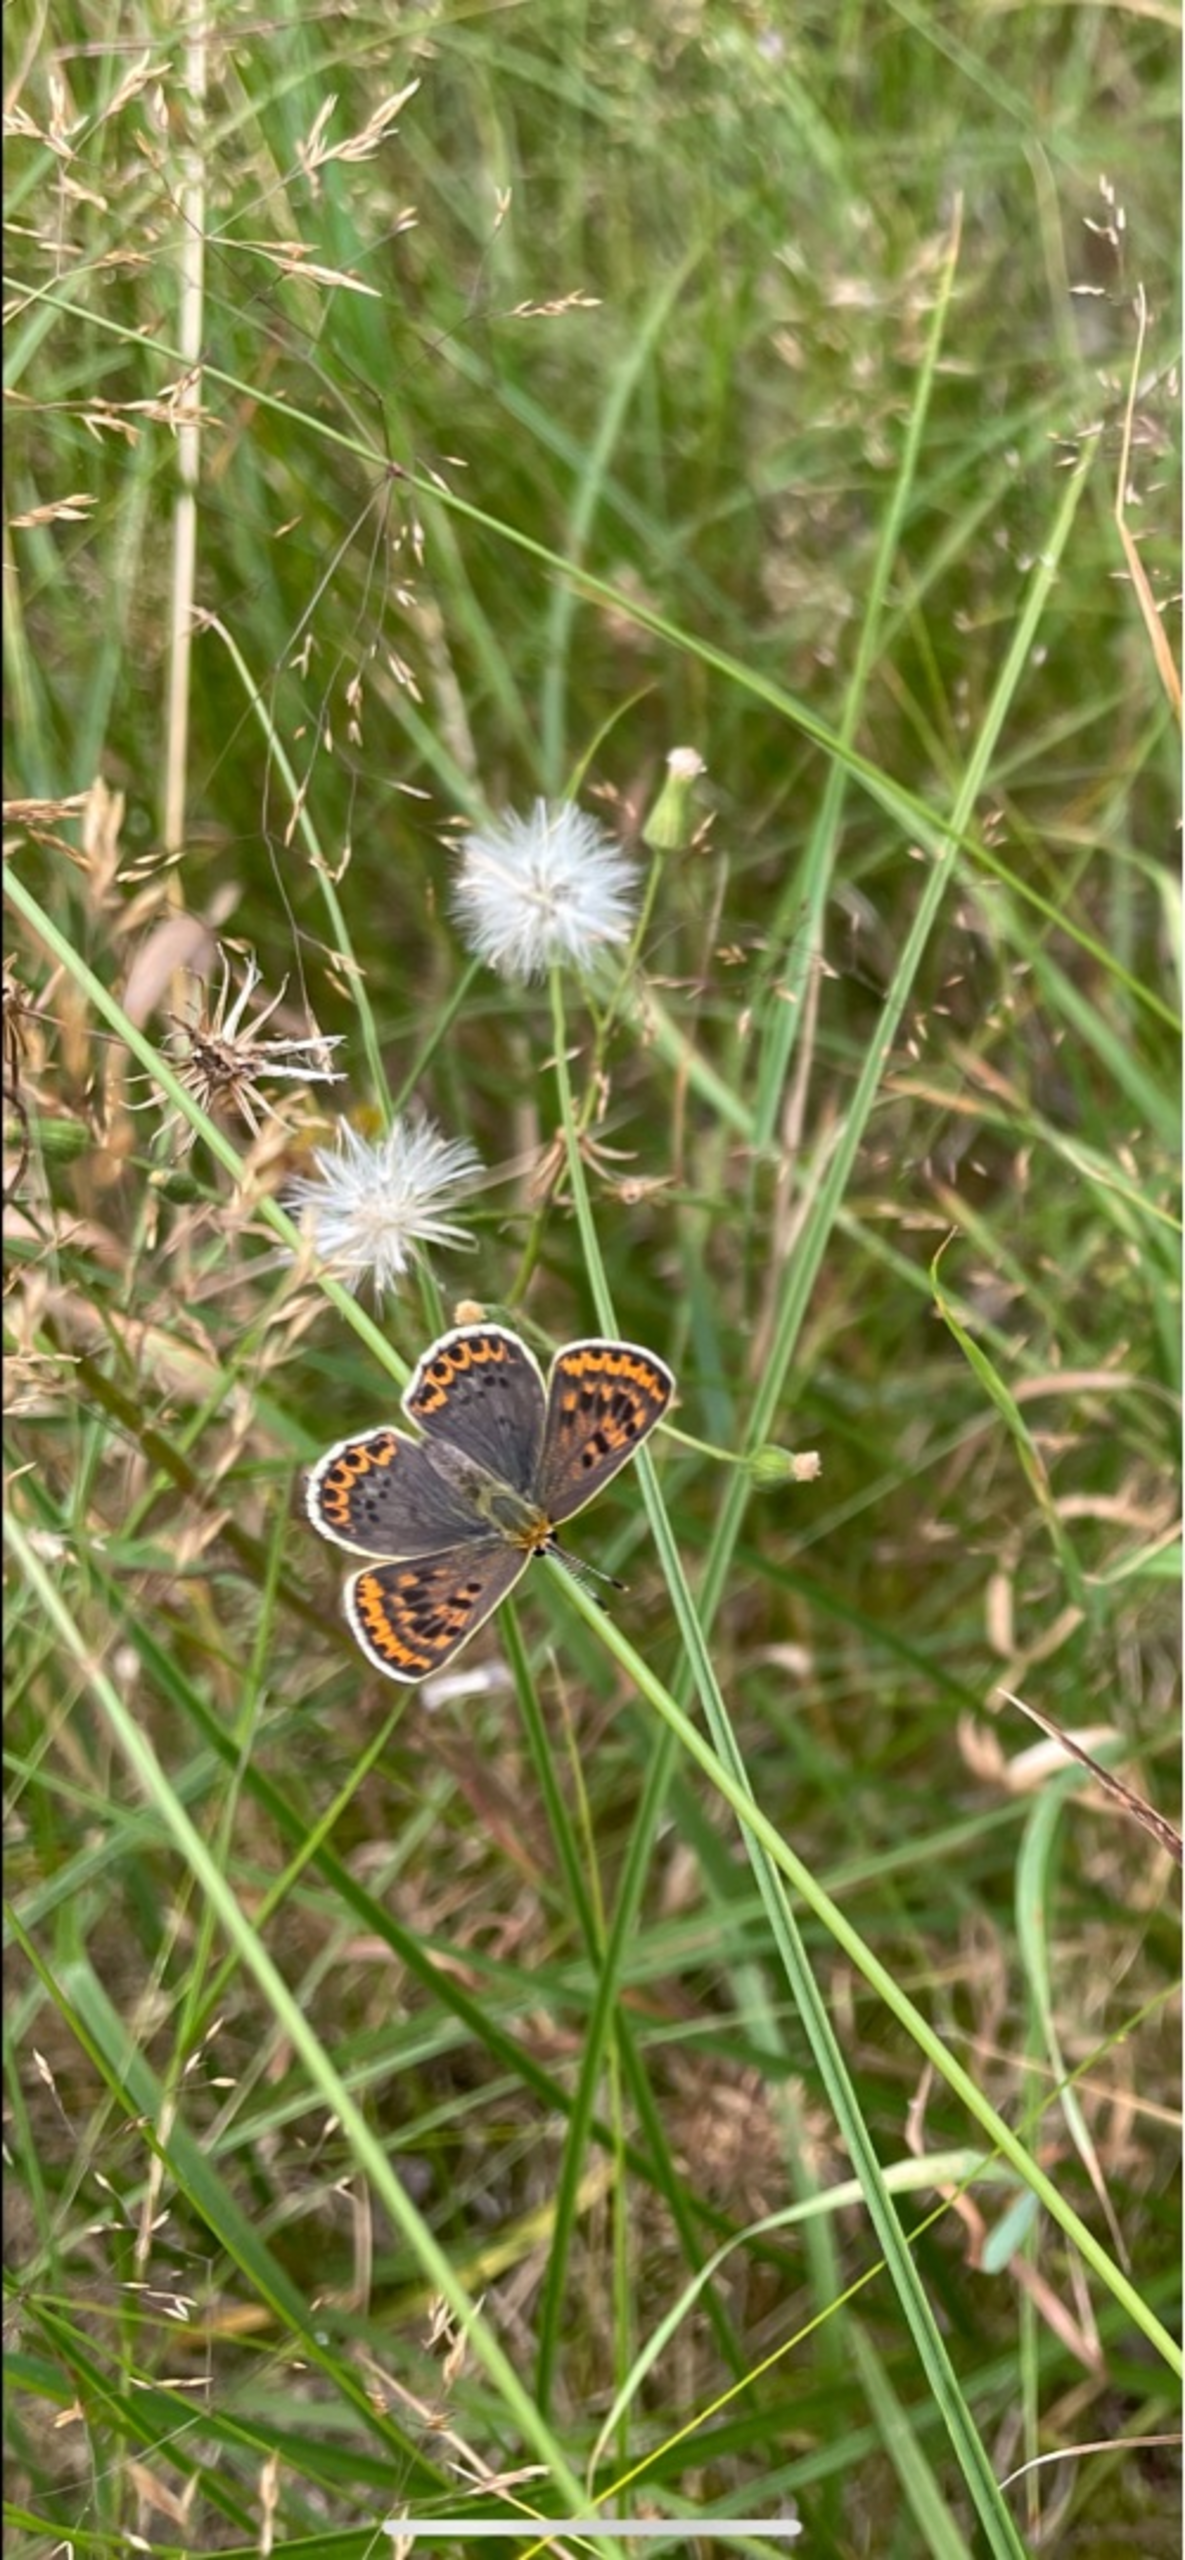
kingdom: Animalia
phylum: Arthropoda
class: Insecta
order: Lepidoptera
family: Lycaenidae
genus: Loweia
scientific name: Loweia tityrus
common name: Sort ildfugl
